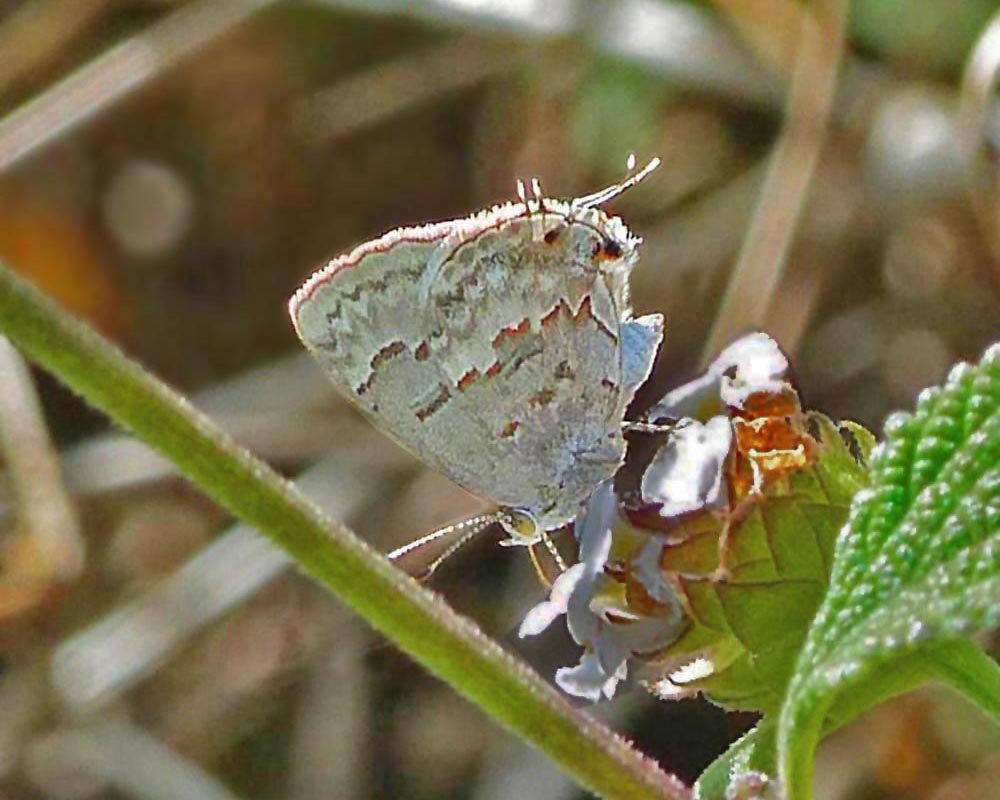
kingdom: Animalia
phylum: Arthropoda
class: Insecta
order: Lepidoptera
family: Lycaenidae
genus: Ministrymon
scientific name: Ministrymon clytie
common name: Clytie Ministreak
